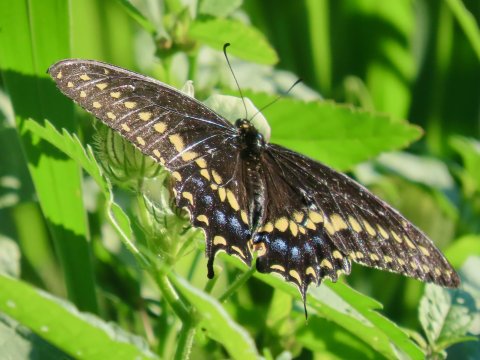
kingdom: Animalia
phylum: Arthropoda
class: Insecta
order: Lepidoptera
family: Papilionidae
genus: Papilio
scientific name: Papilio polyxenes
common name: Black Swallowtail
